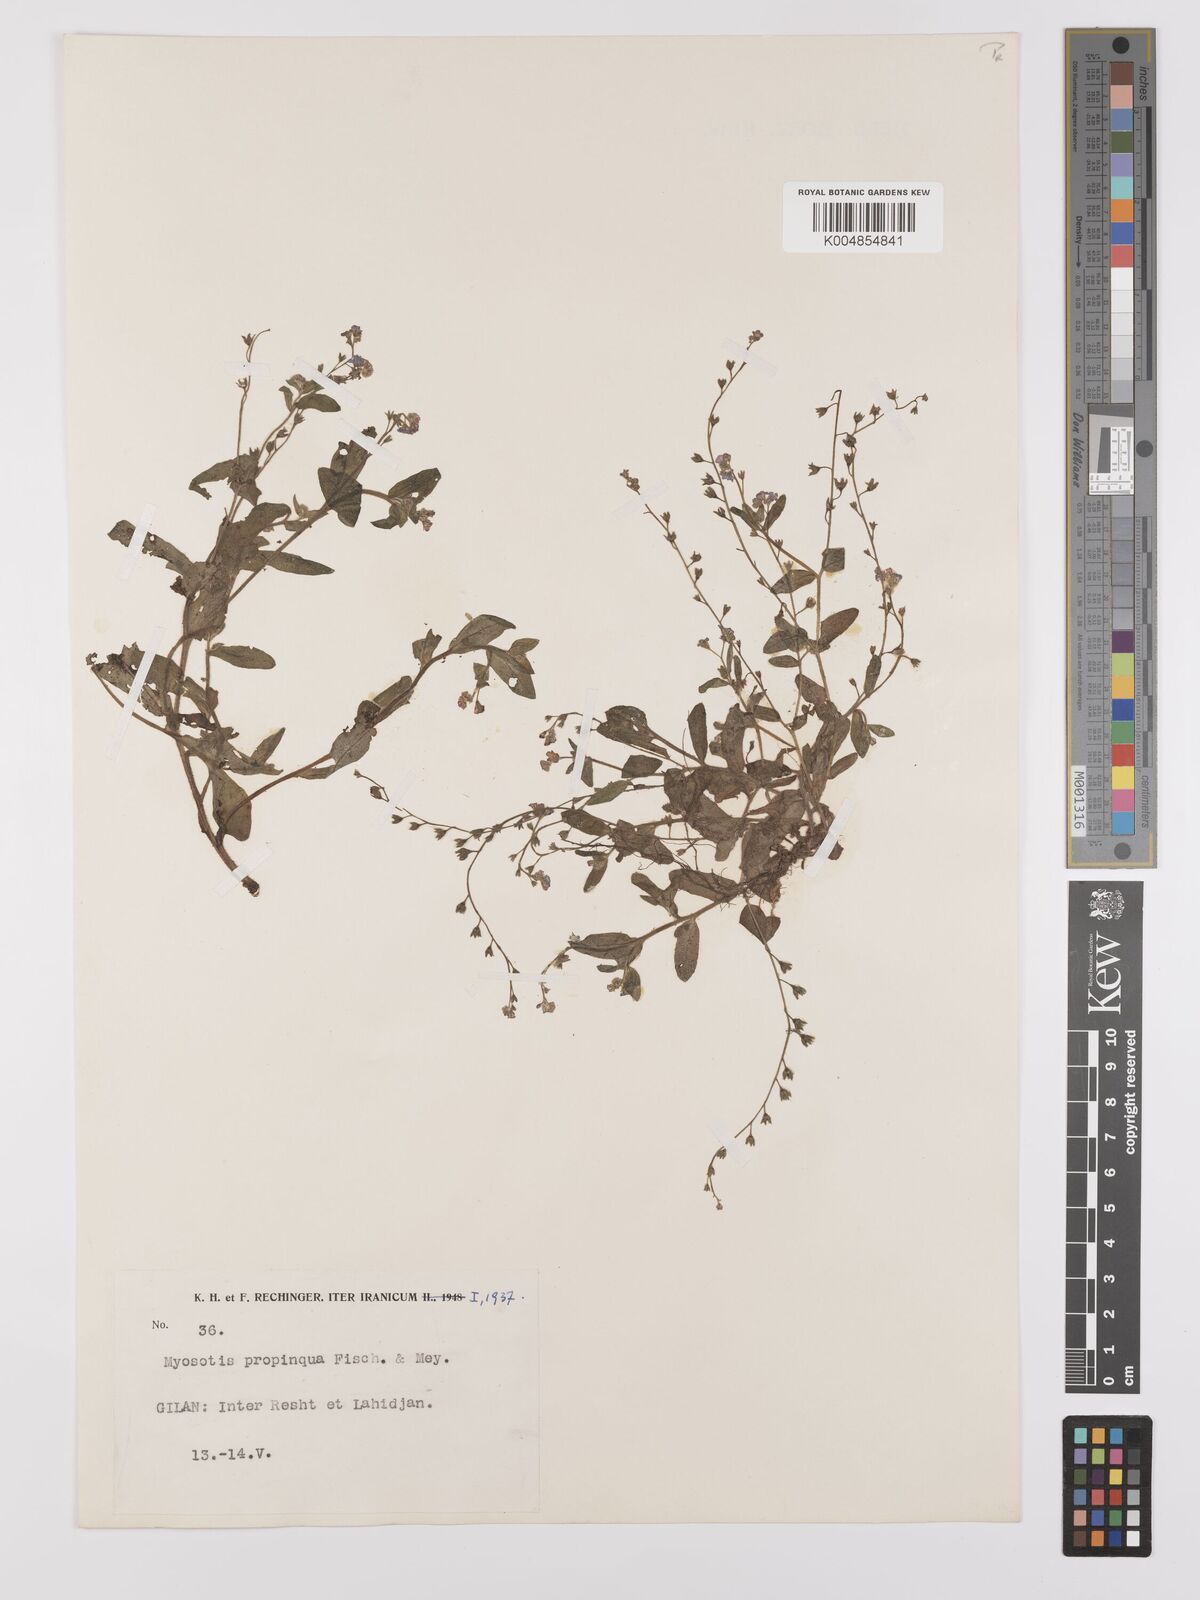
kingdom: Plantae
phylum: Tracheophyta
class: Magnoliopsida
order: Boraginales
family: Boraginaceae
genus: Myosotis
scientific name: Myosotis propinqua
